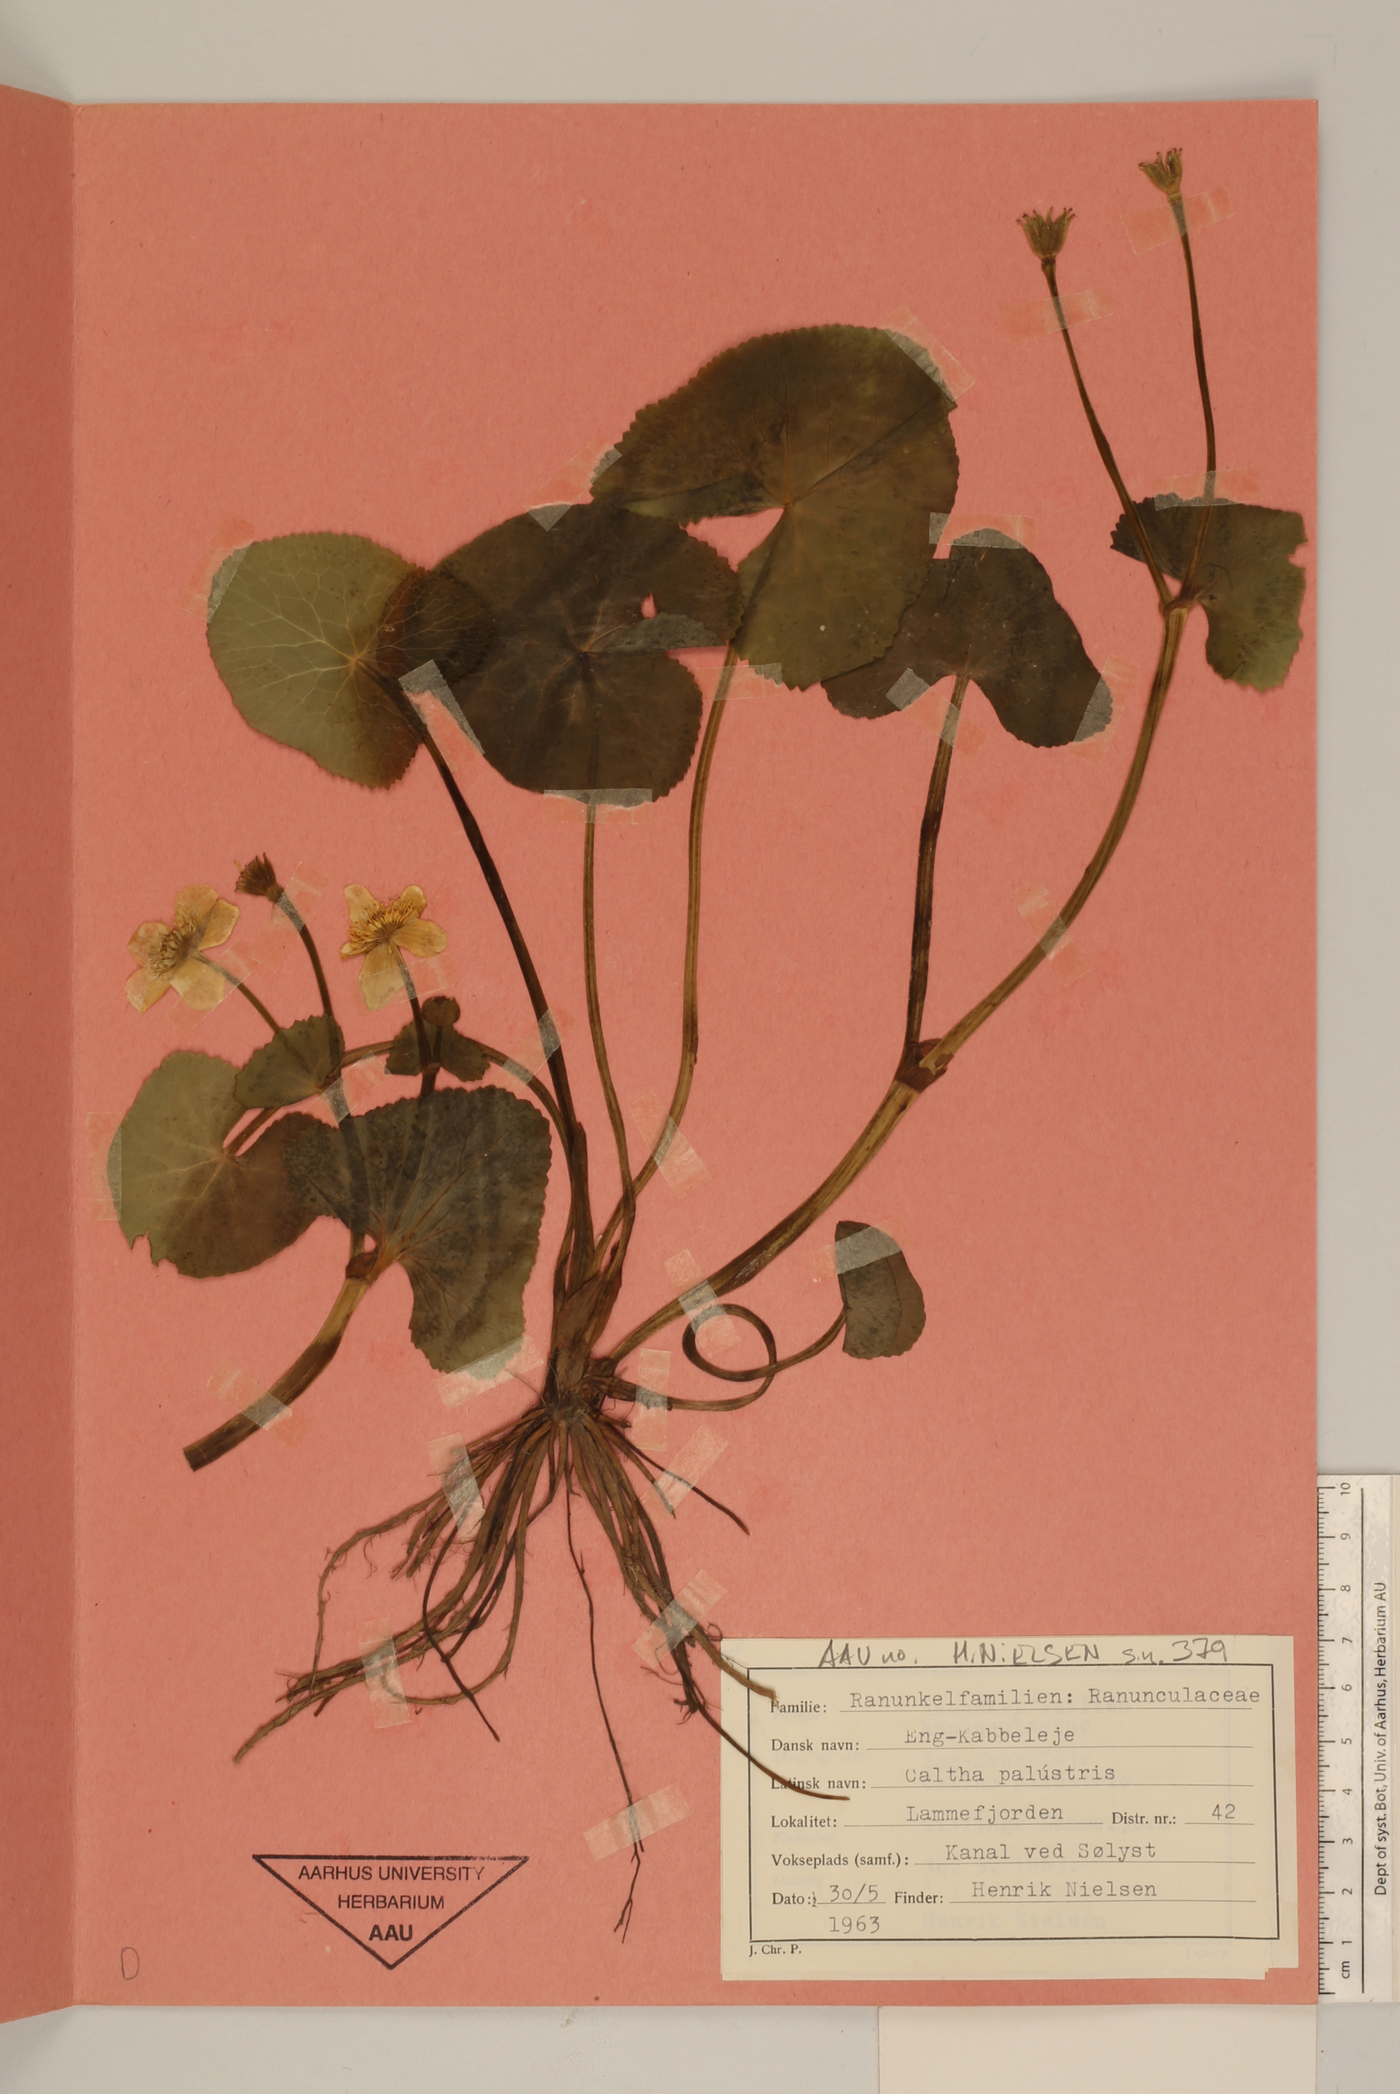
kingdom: Plantae
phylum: Tracheophyta
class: Magnoliopsida
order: Ranunculales
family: Ranunculaceae
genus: Caltha
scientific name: Caltha palustris
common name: Marsh marigold
